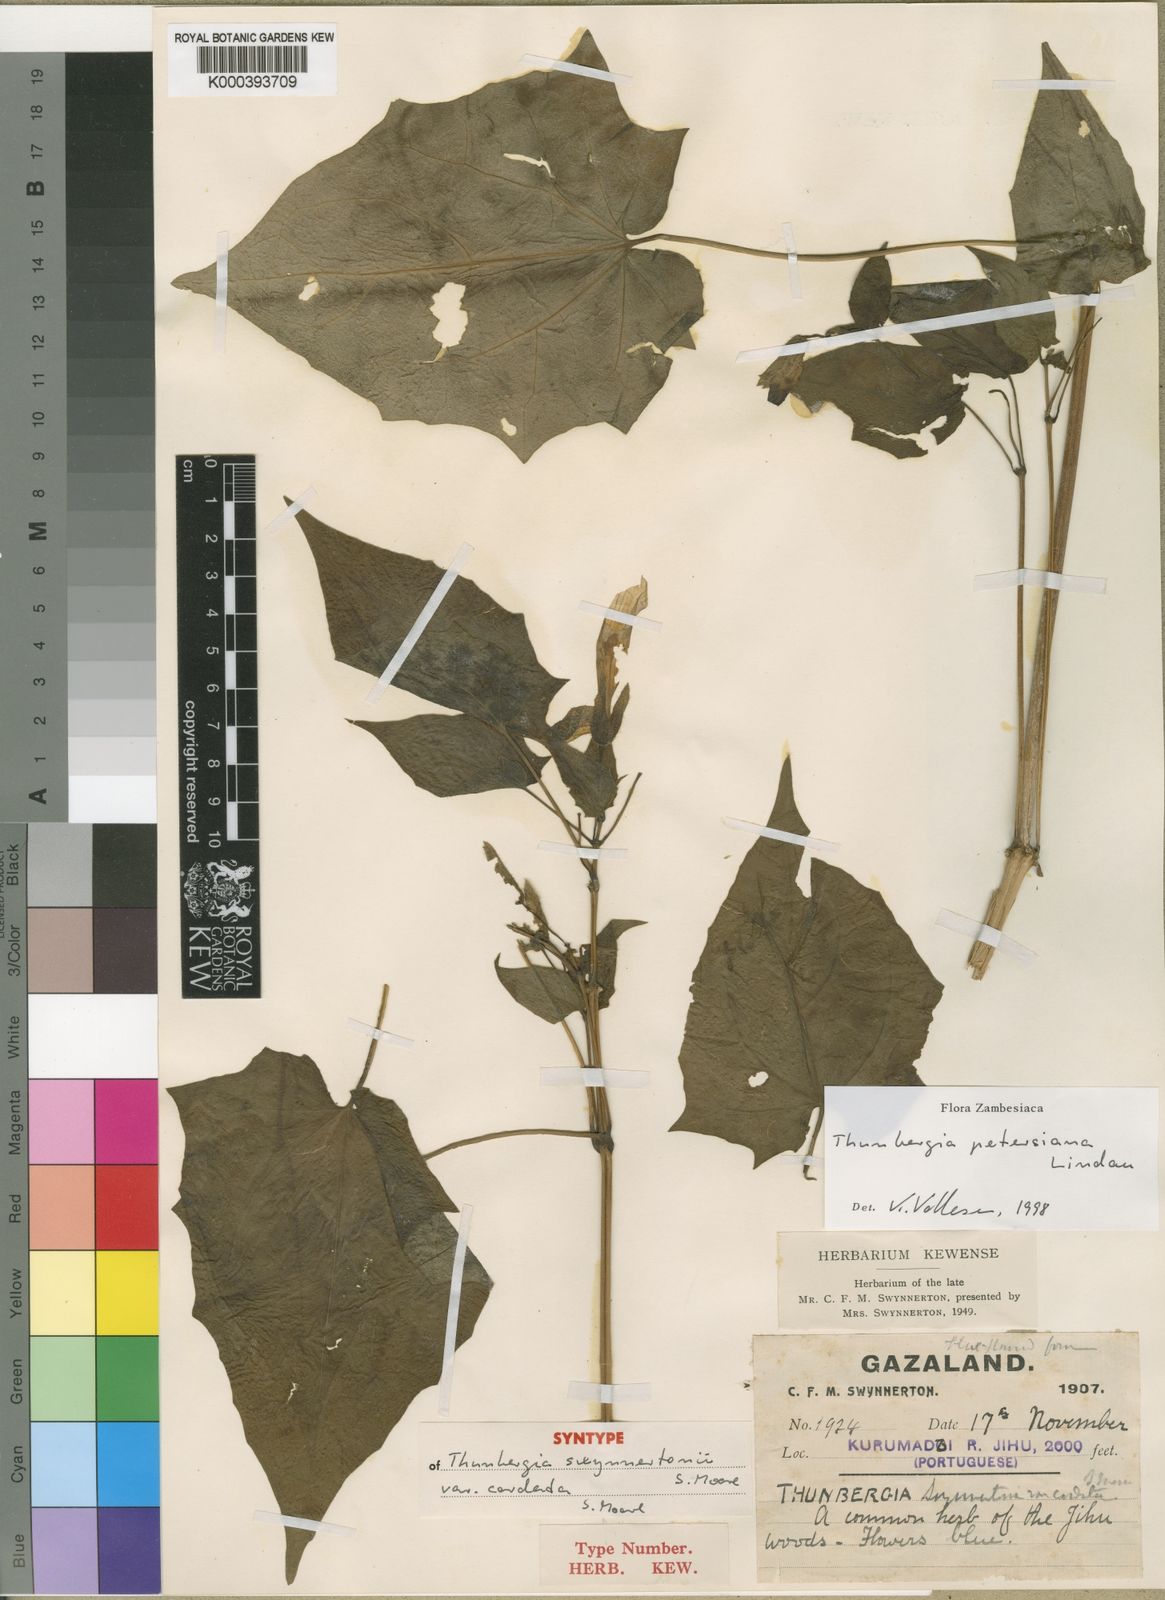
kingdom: Plantae
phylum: Tracheophyta
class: Magnoliopsida
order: Lamiales
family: Acanthaceae
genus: Thunbergia
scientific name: Thunbergia petersiana
